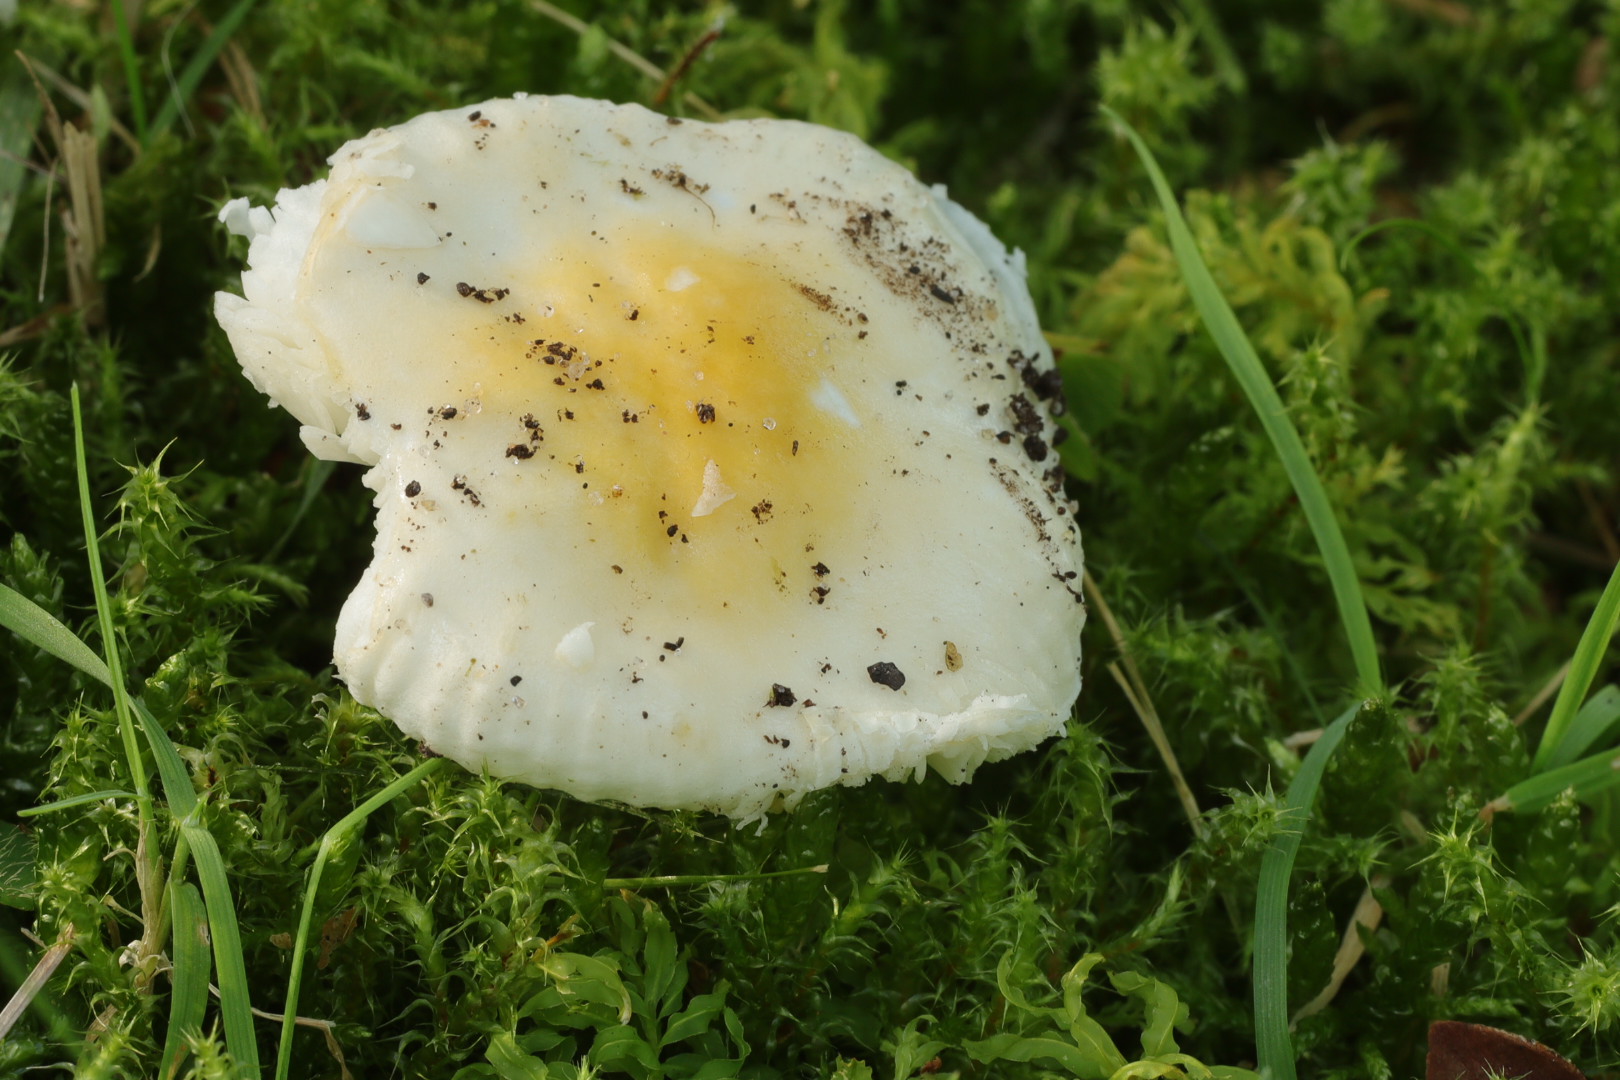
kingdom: Fungi
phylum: Basidiomycota
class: Agaricomycetes
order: Russulales
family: Russulaceae
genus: Russula
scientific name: Russula solaris
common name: sol-skørhat
